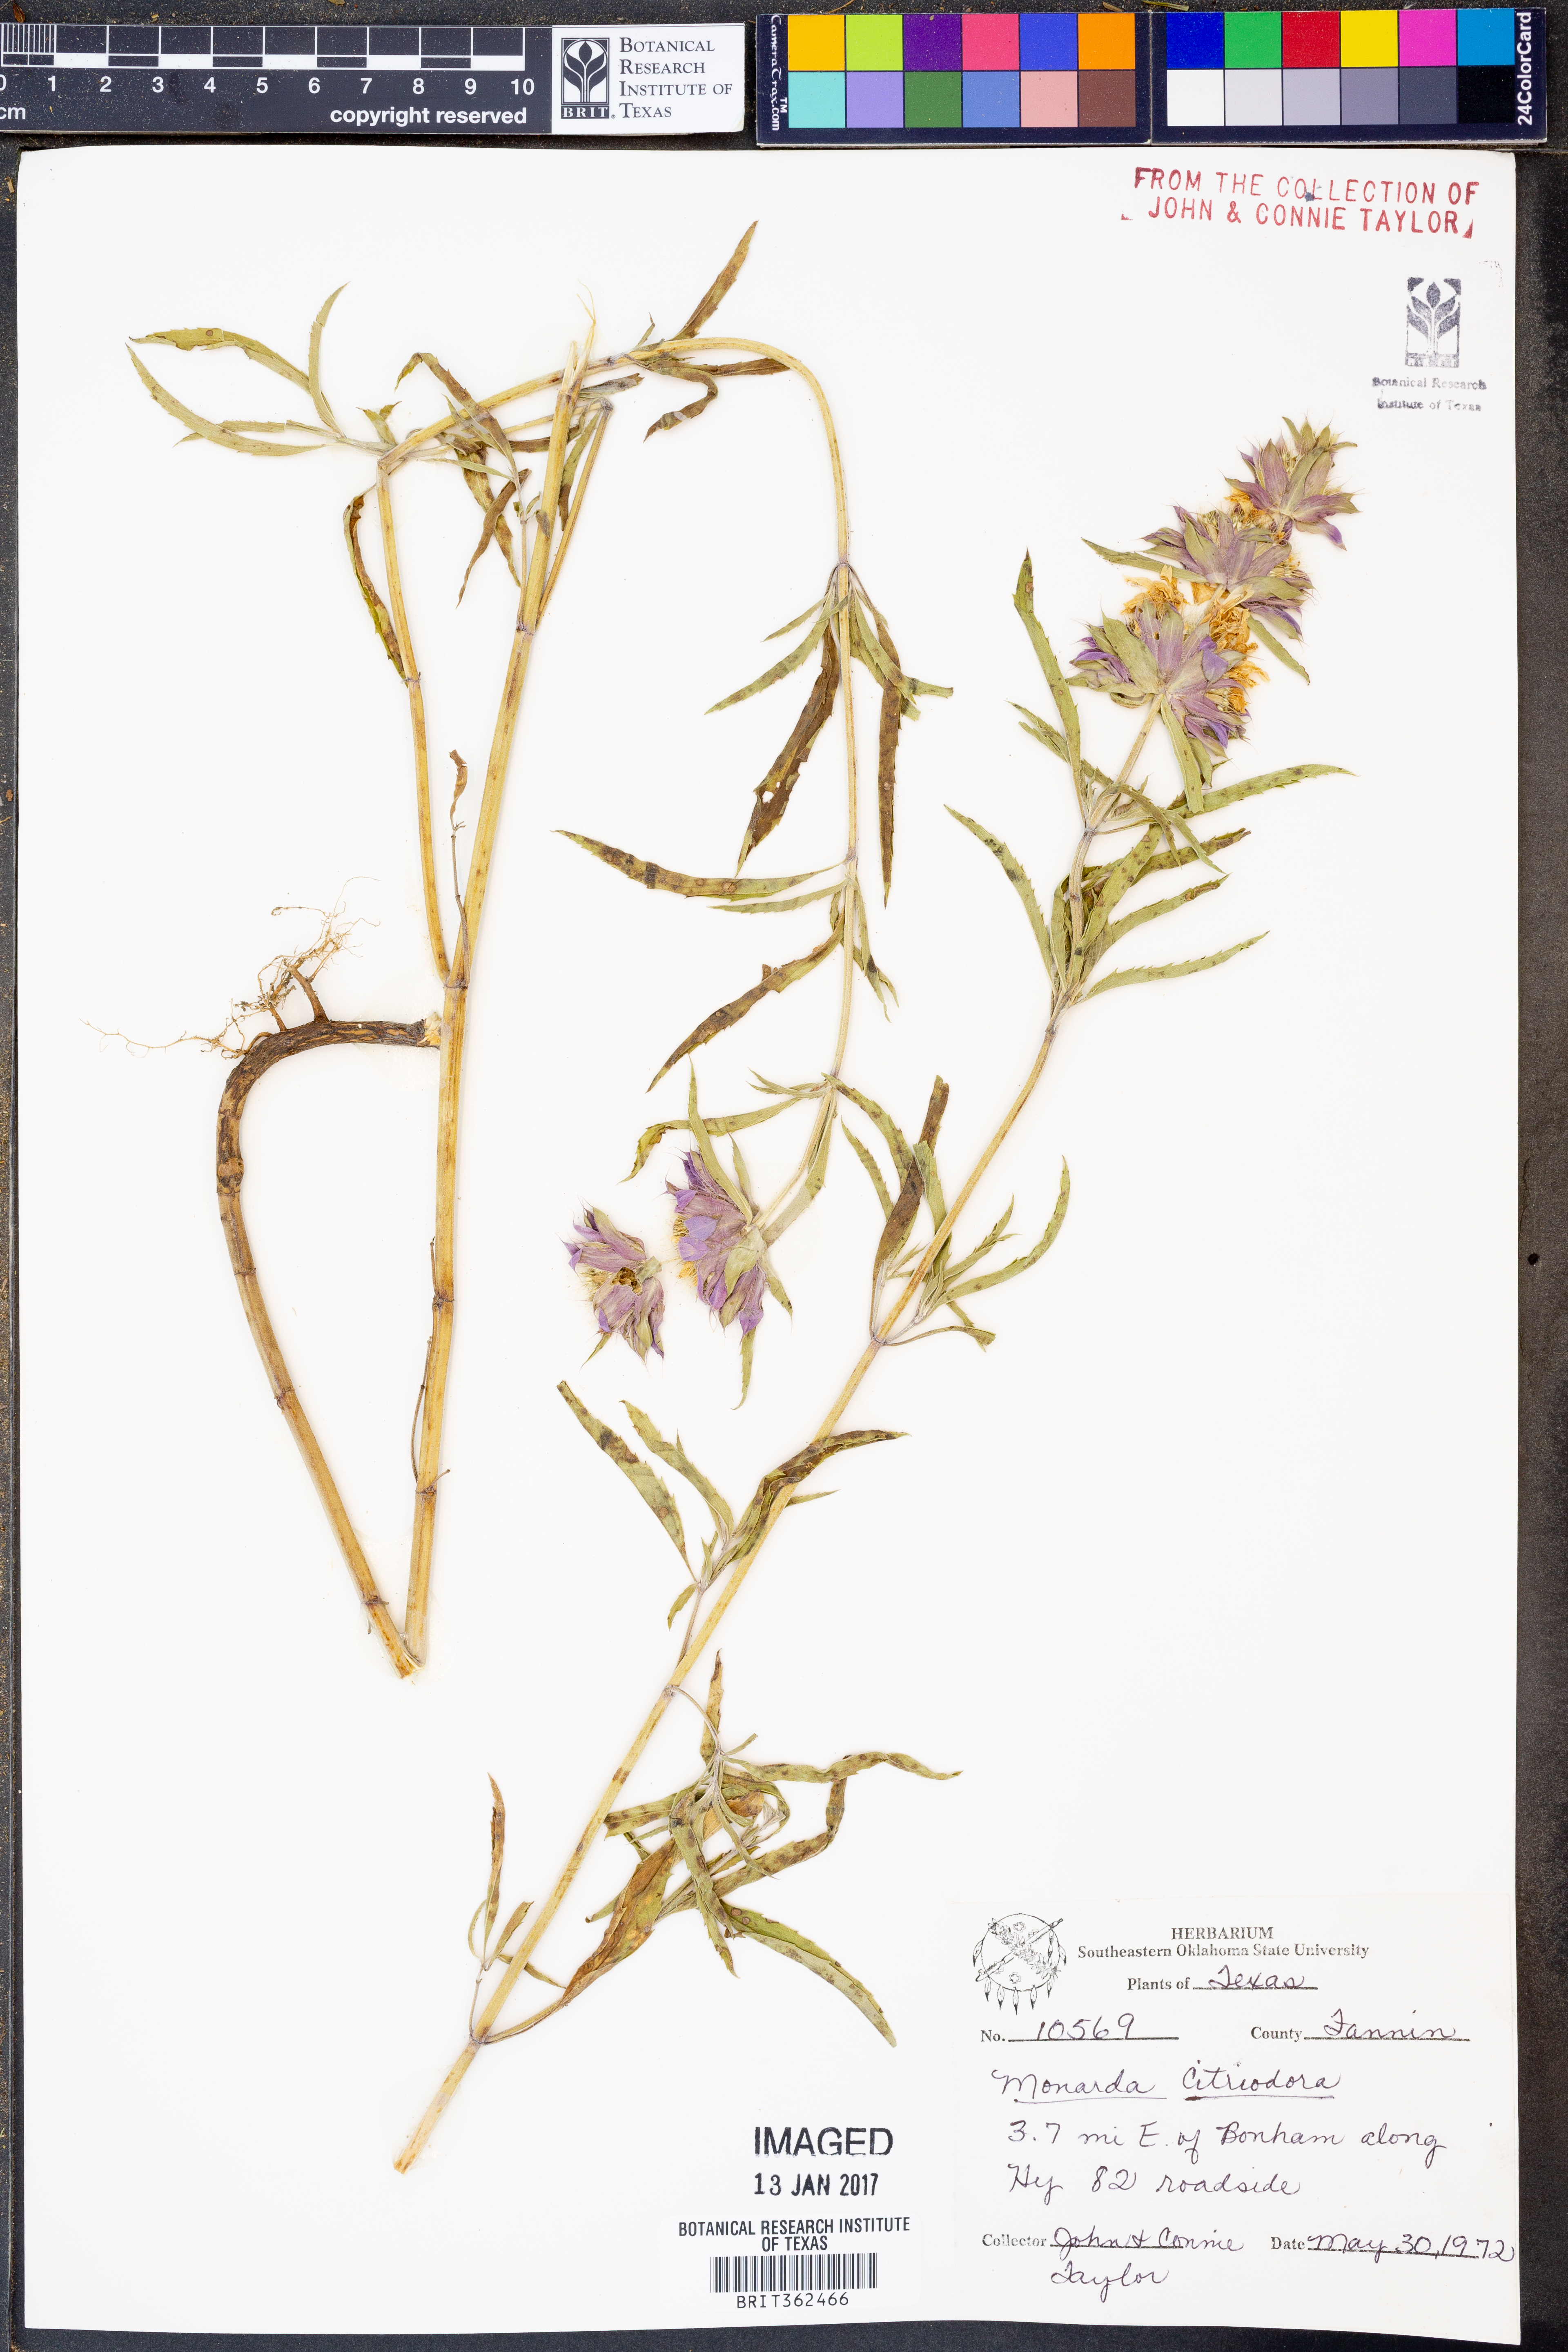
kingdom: Plantae
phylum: Tracheophyta
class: Magnoliopsida
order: Lamiales
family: Lamiaceae
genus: Monarda
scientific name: Monarda citriodora
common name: Lemon beebalm
